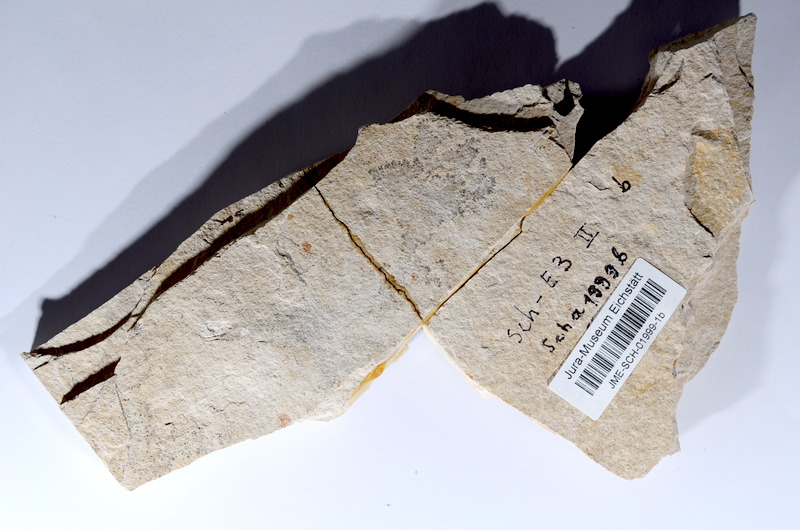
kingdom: Animalia
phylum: Chordata
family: Ascalaboidae
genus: Tharsis
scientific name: Tharsis dubius
